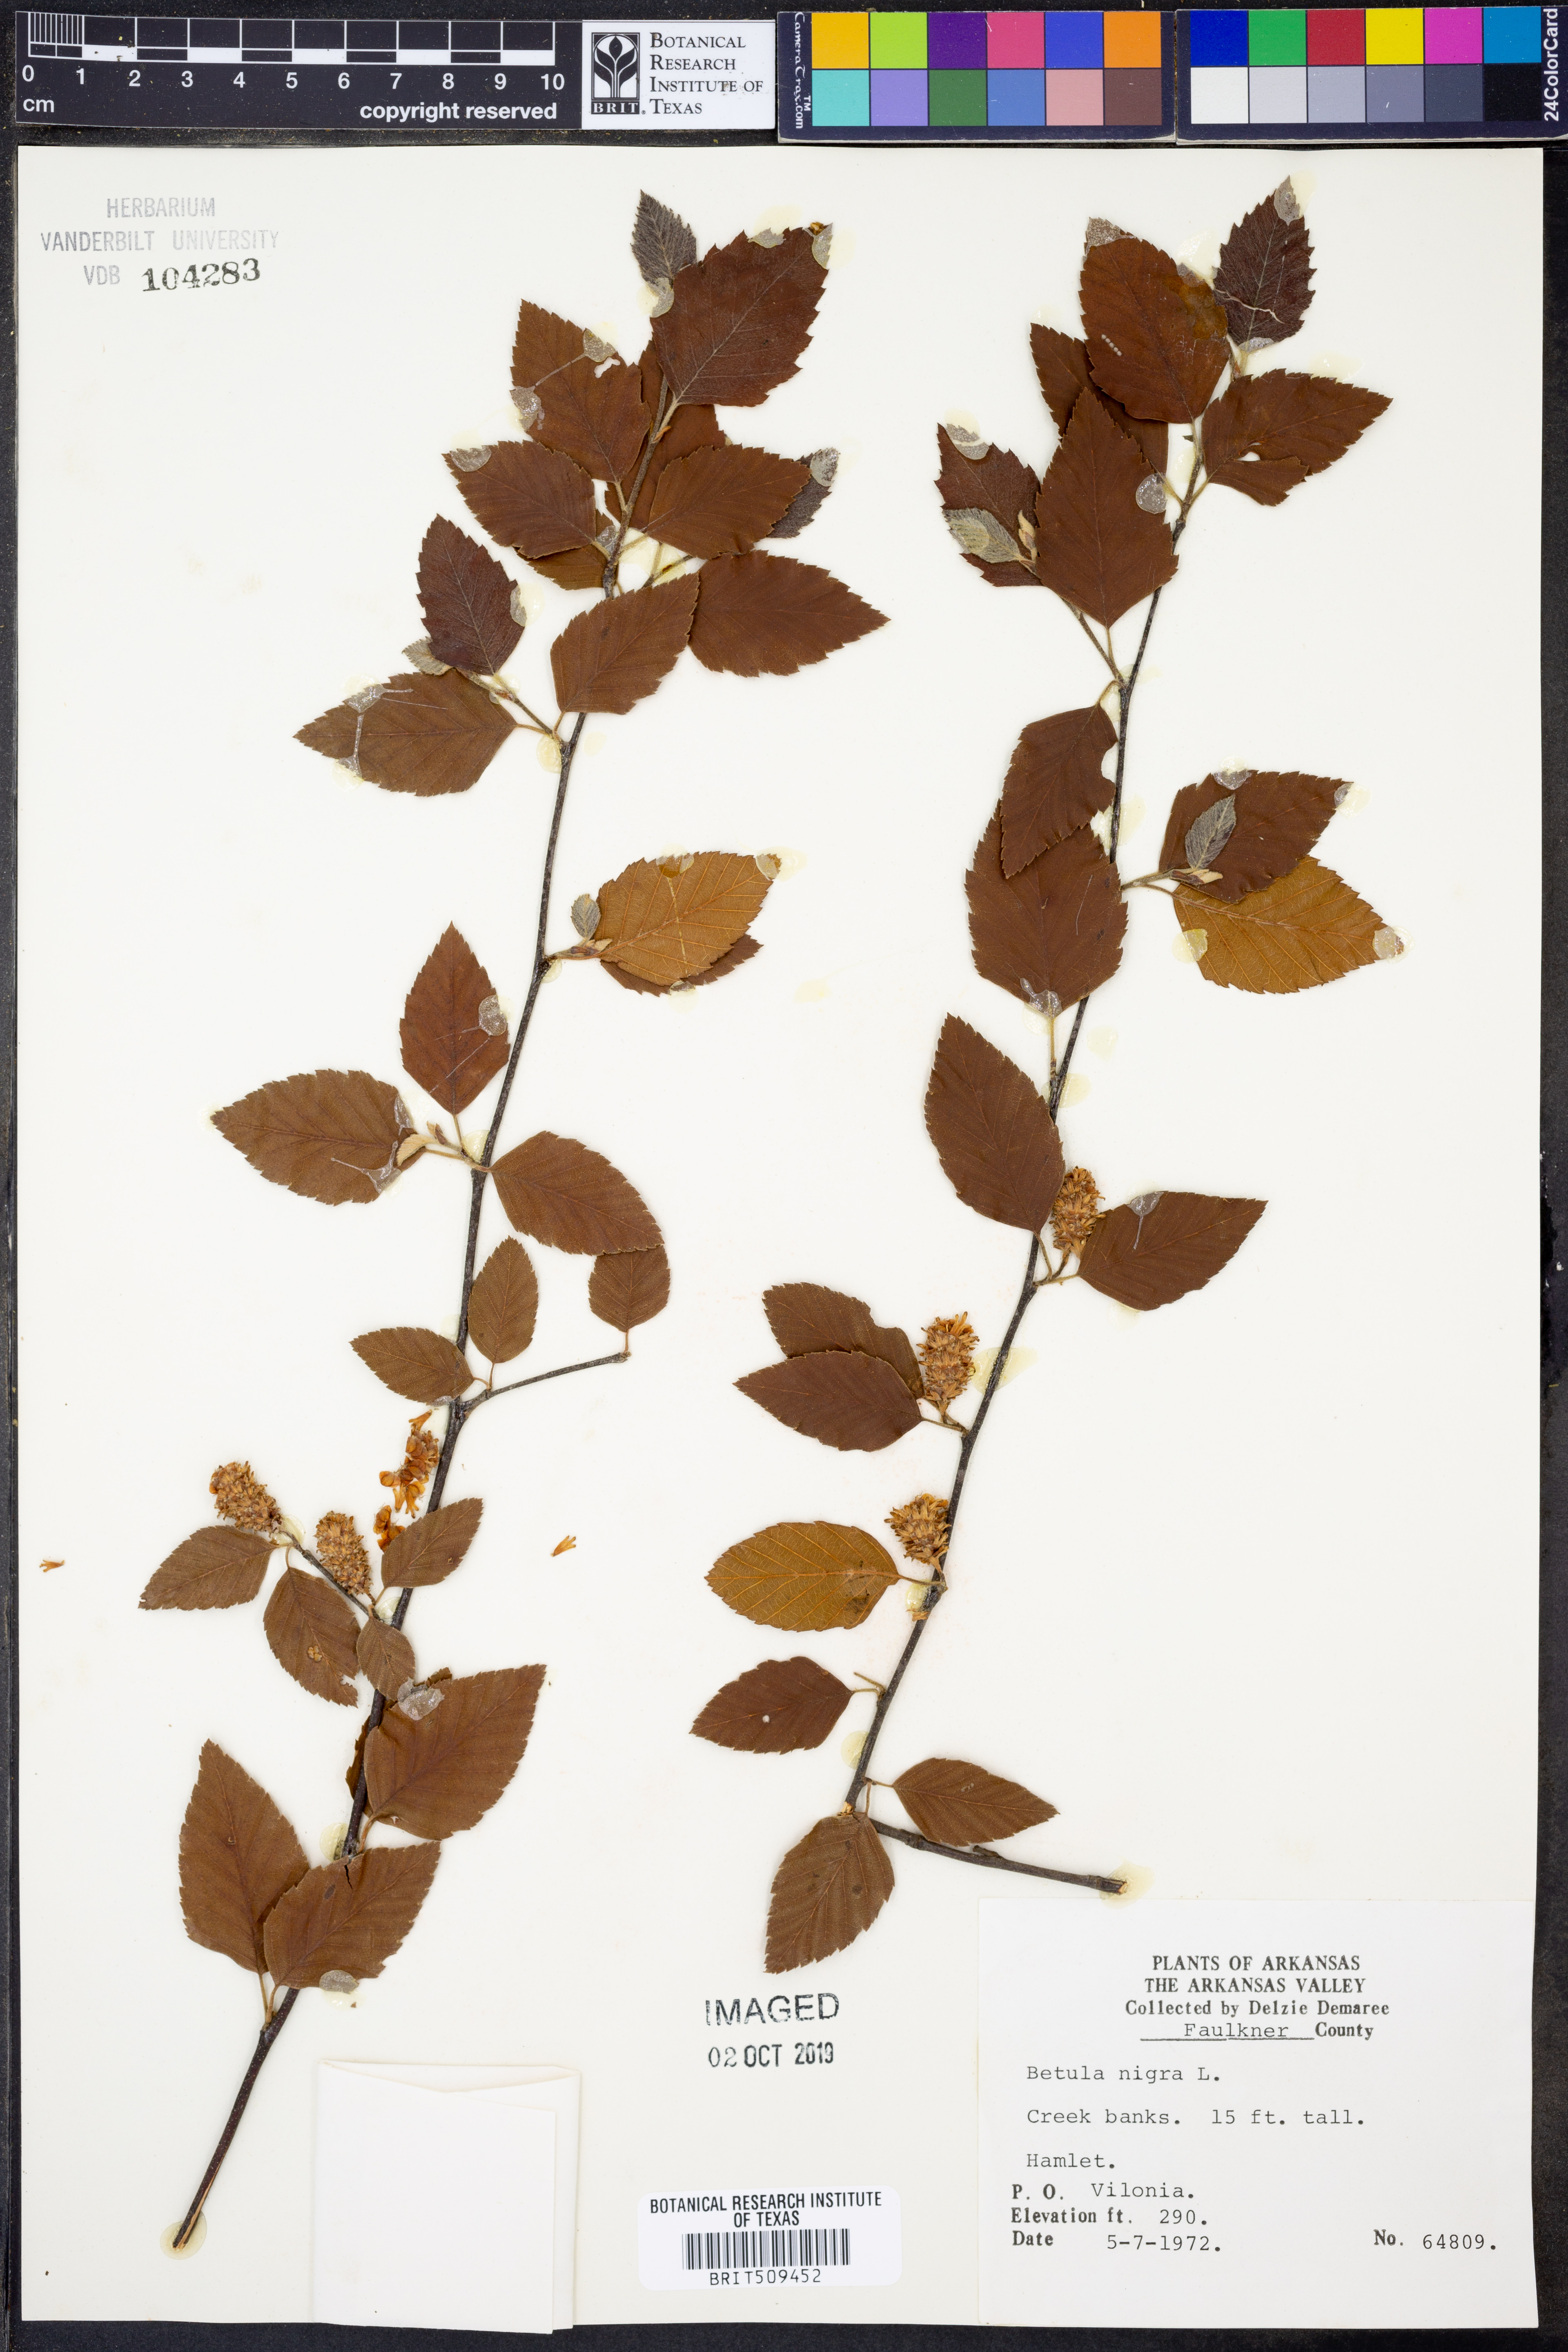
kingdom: Plantae
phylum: Tracheophyta
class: Magnoliopsida
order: Fagales
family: Betulaceae
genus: Betula
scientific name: Betula nigra
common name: Black birch
